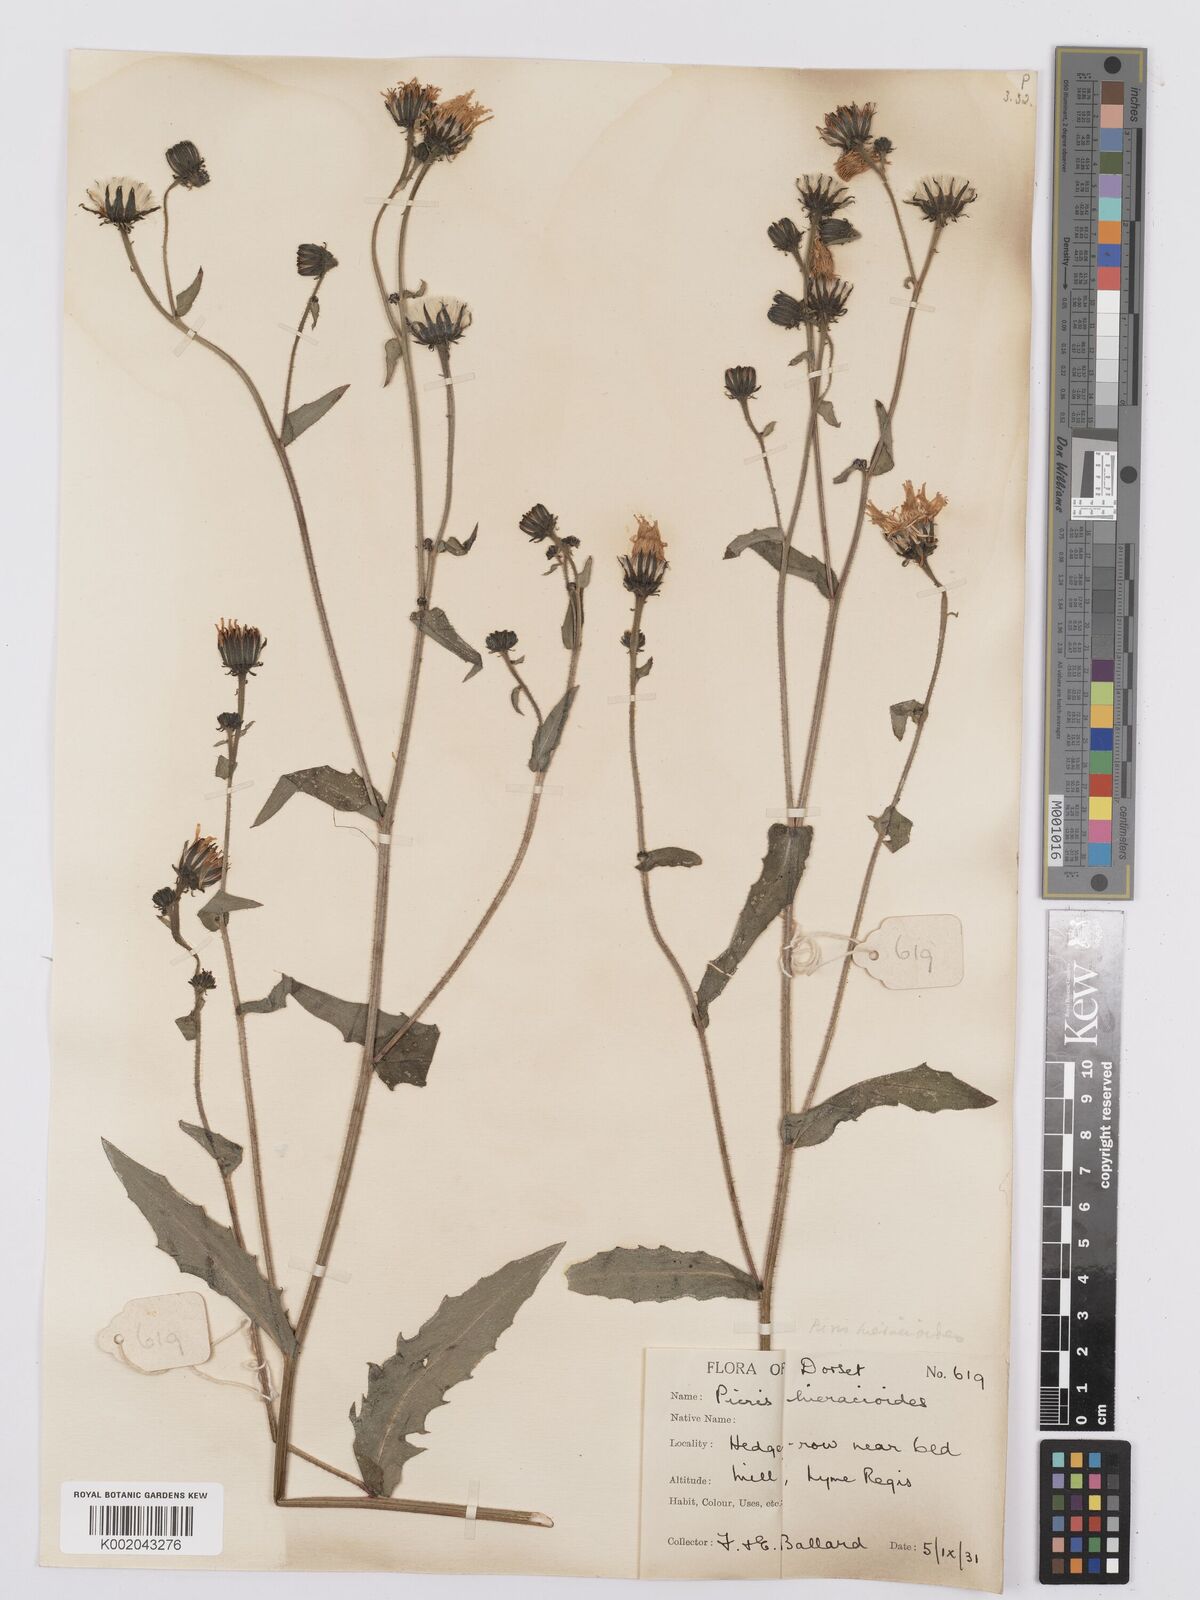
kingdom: Plantae
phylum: Tracheophyta
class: Magnoliopsida
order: Asterales
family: Asteraceae
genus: Picris
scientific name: Picris hieracioides
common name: Hawkweed oxtongue
